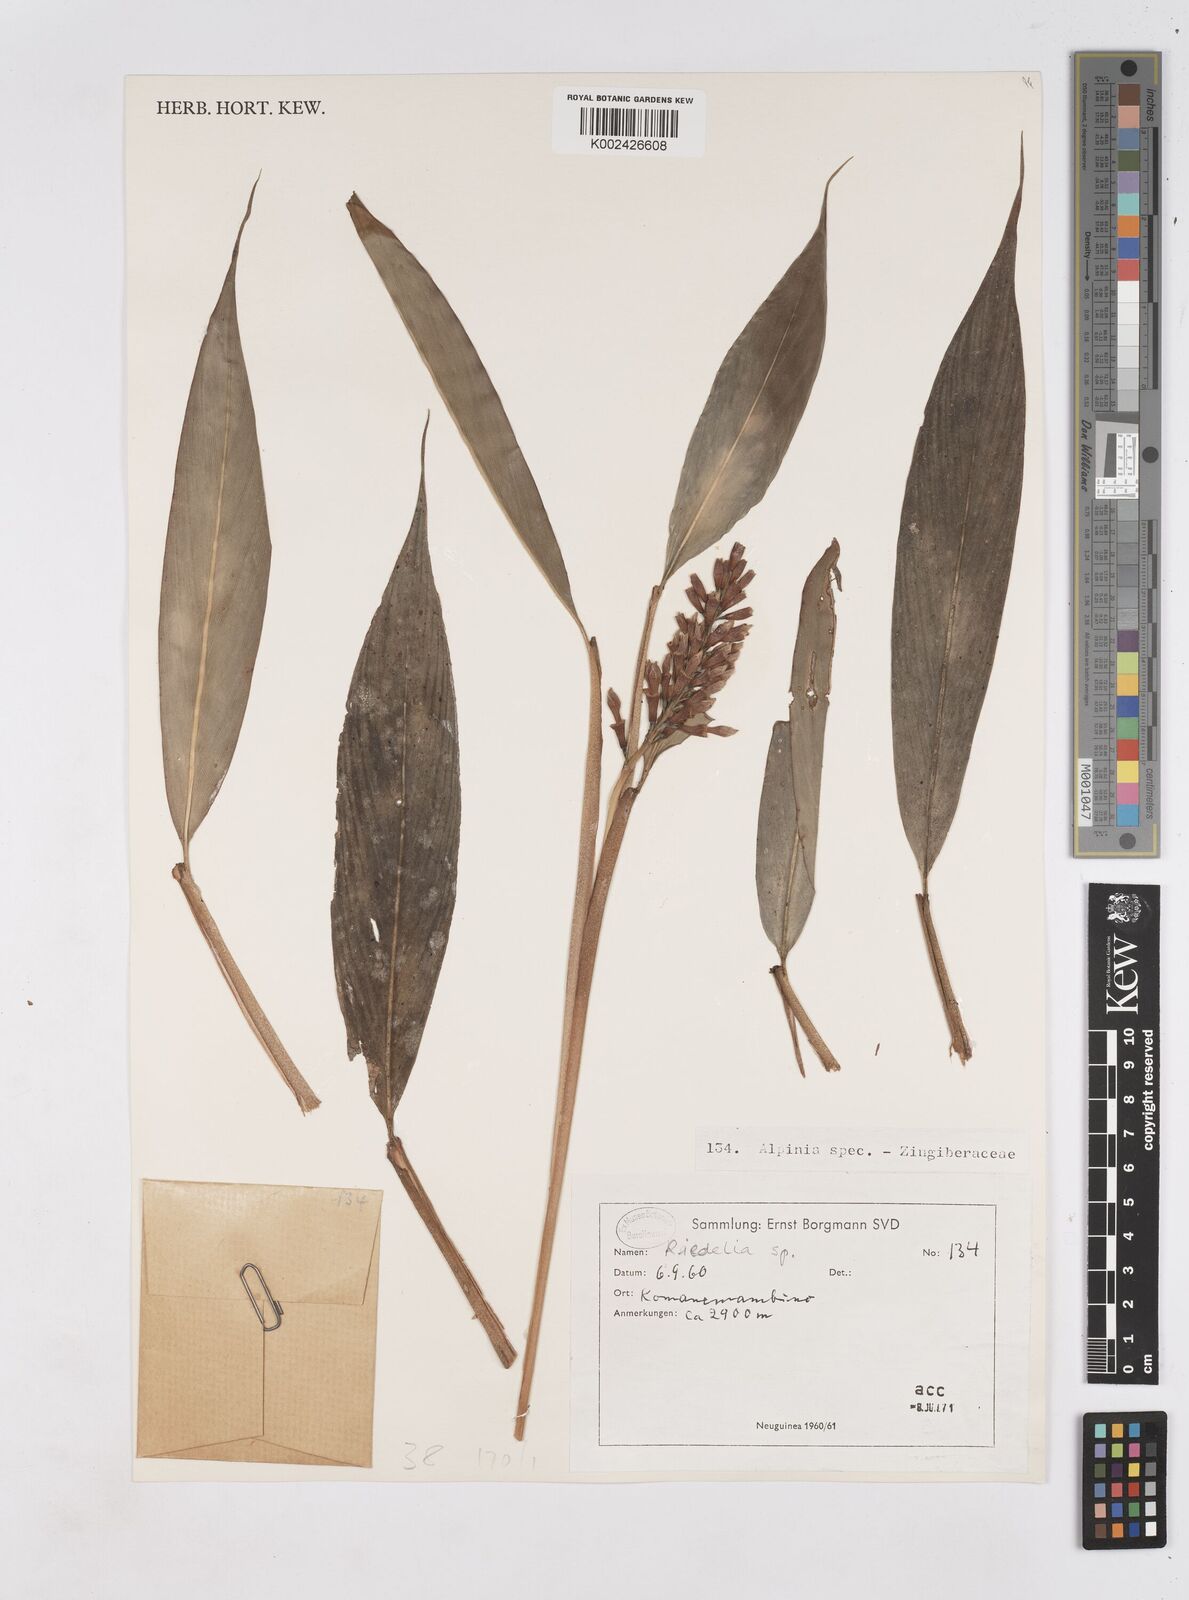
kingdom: Plantae
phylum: Tracheophyta
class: Liliopsida
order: Zingiberales
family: Zingiberaceae
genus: Riedelia
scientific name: Riedelia
